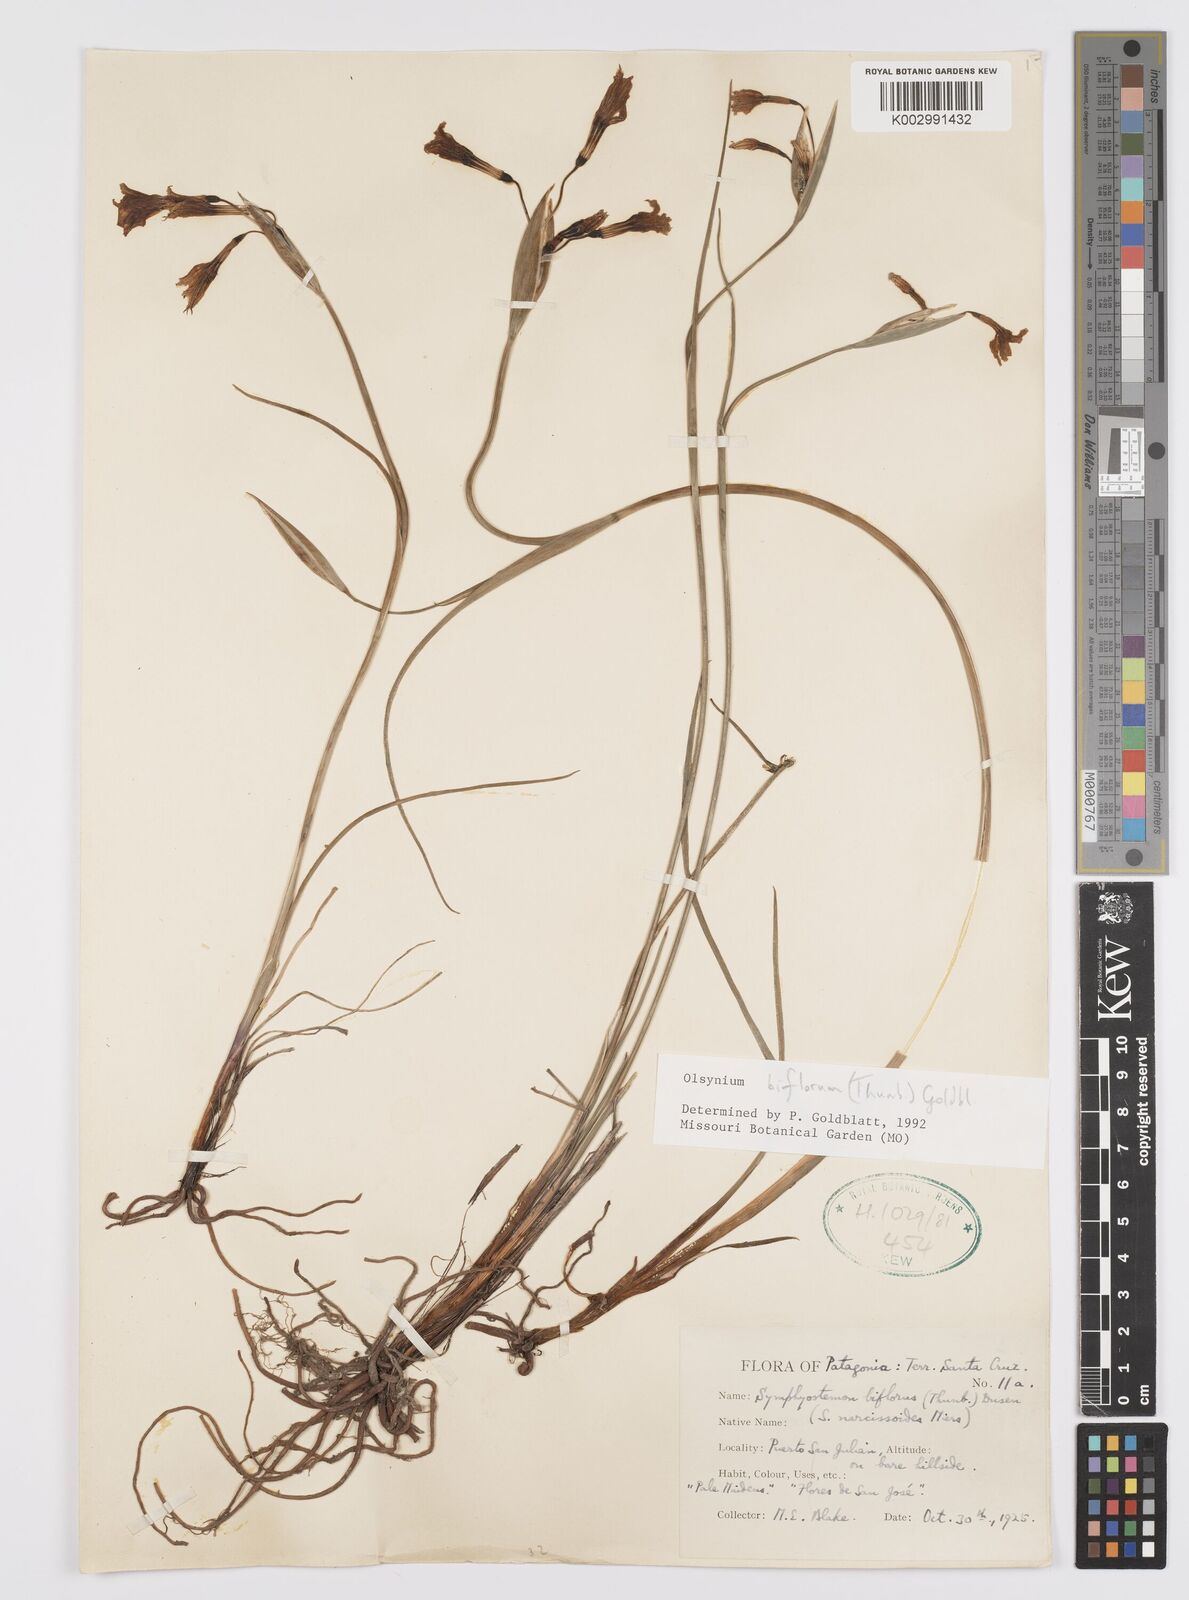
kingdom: Plantae
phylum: Tracheophyta
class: Liliopsida
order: Asparagales
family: Iridaceae
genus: Olsynium
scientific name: Olsynium biflorum
